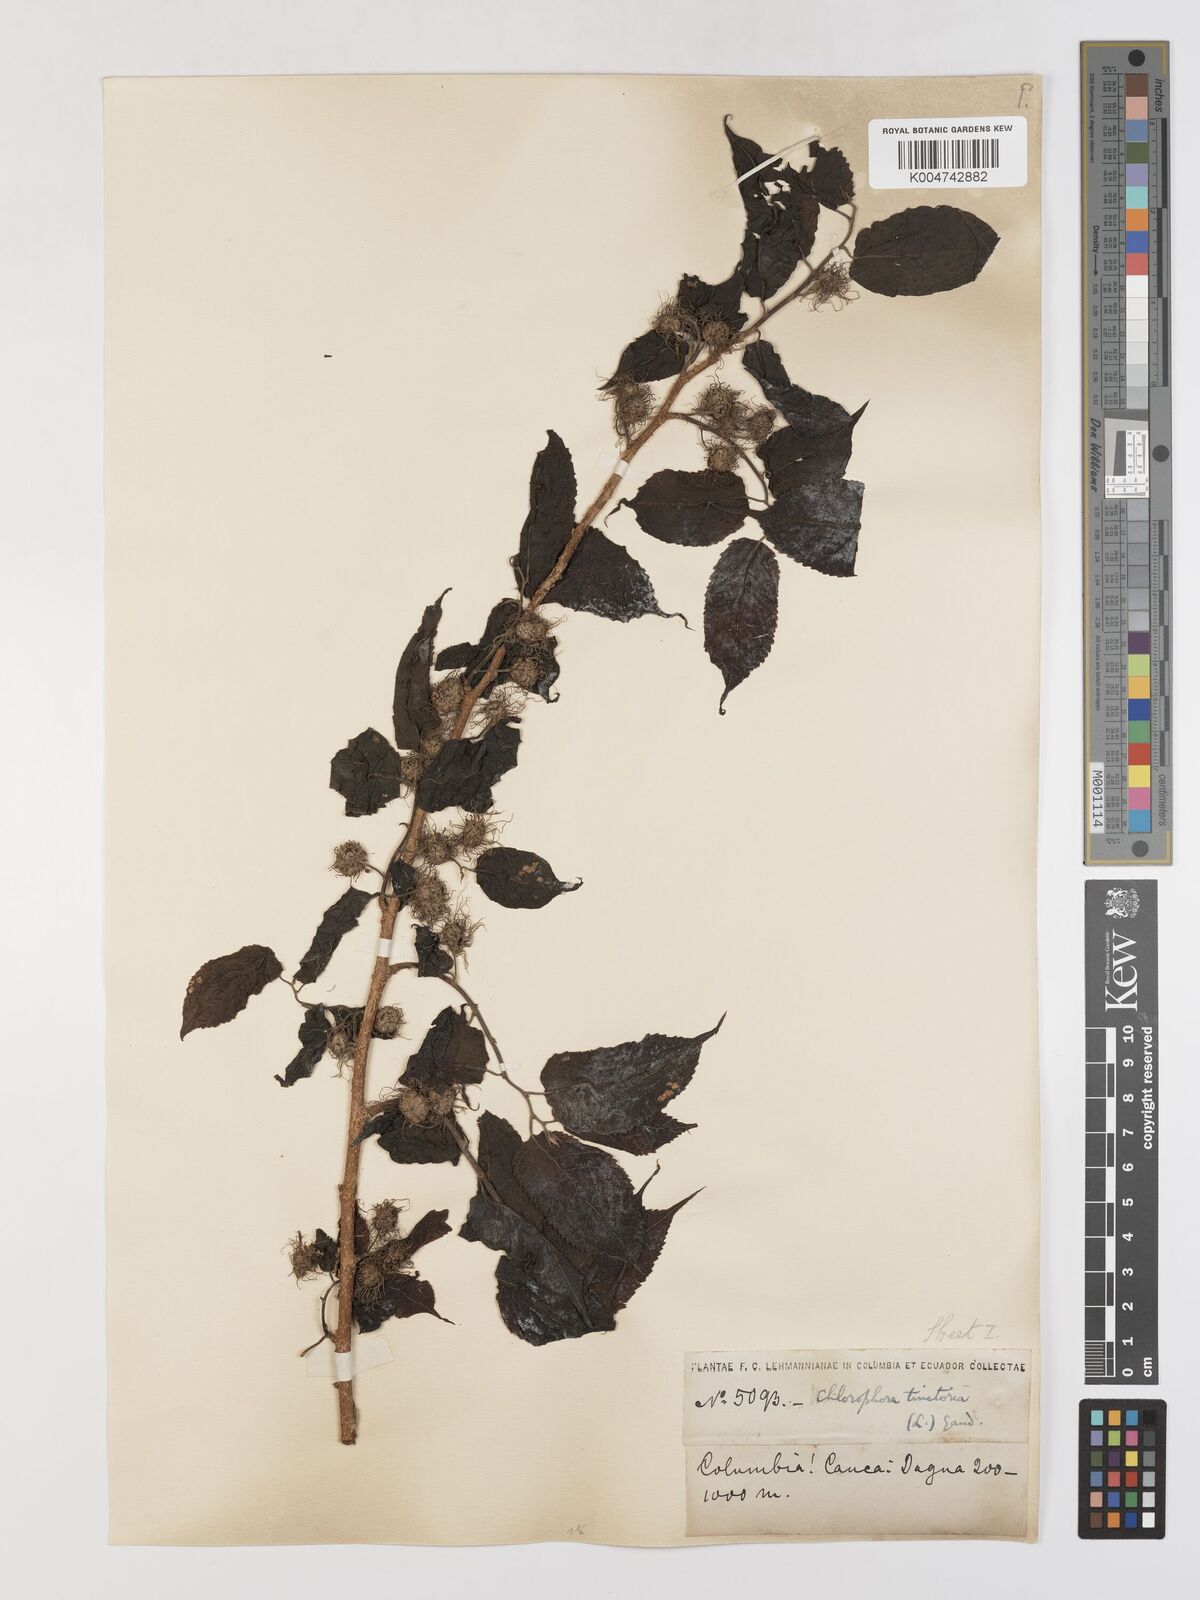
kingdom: Plantae
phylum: Tracheophyta
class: Magnoliopsida
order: Rosales
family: Moraceae
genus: Maclura
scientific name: Maclura tinctoria
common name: Old fustic
